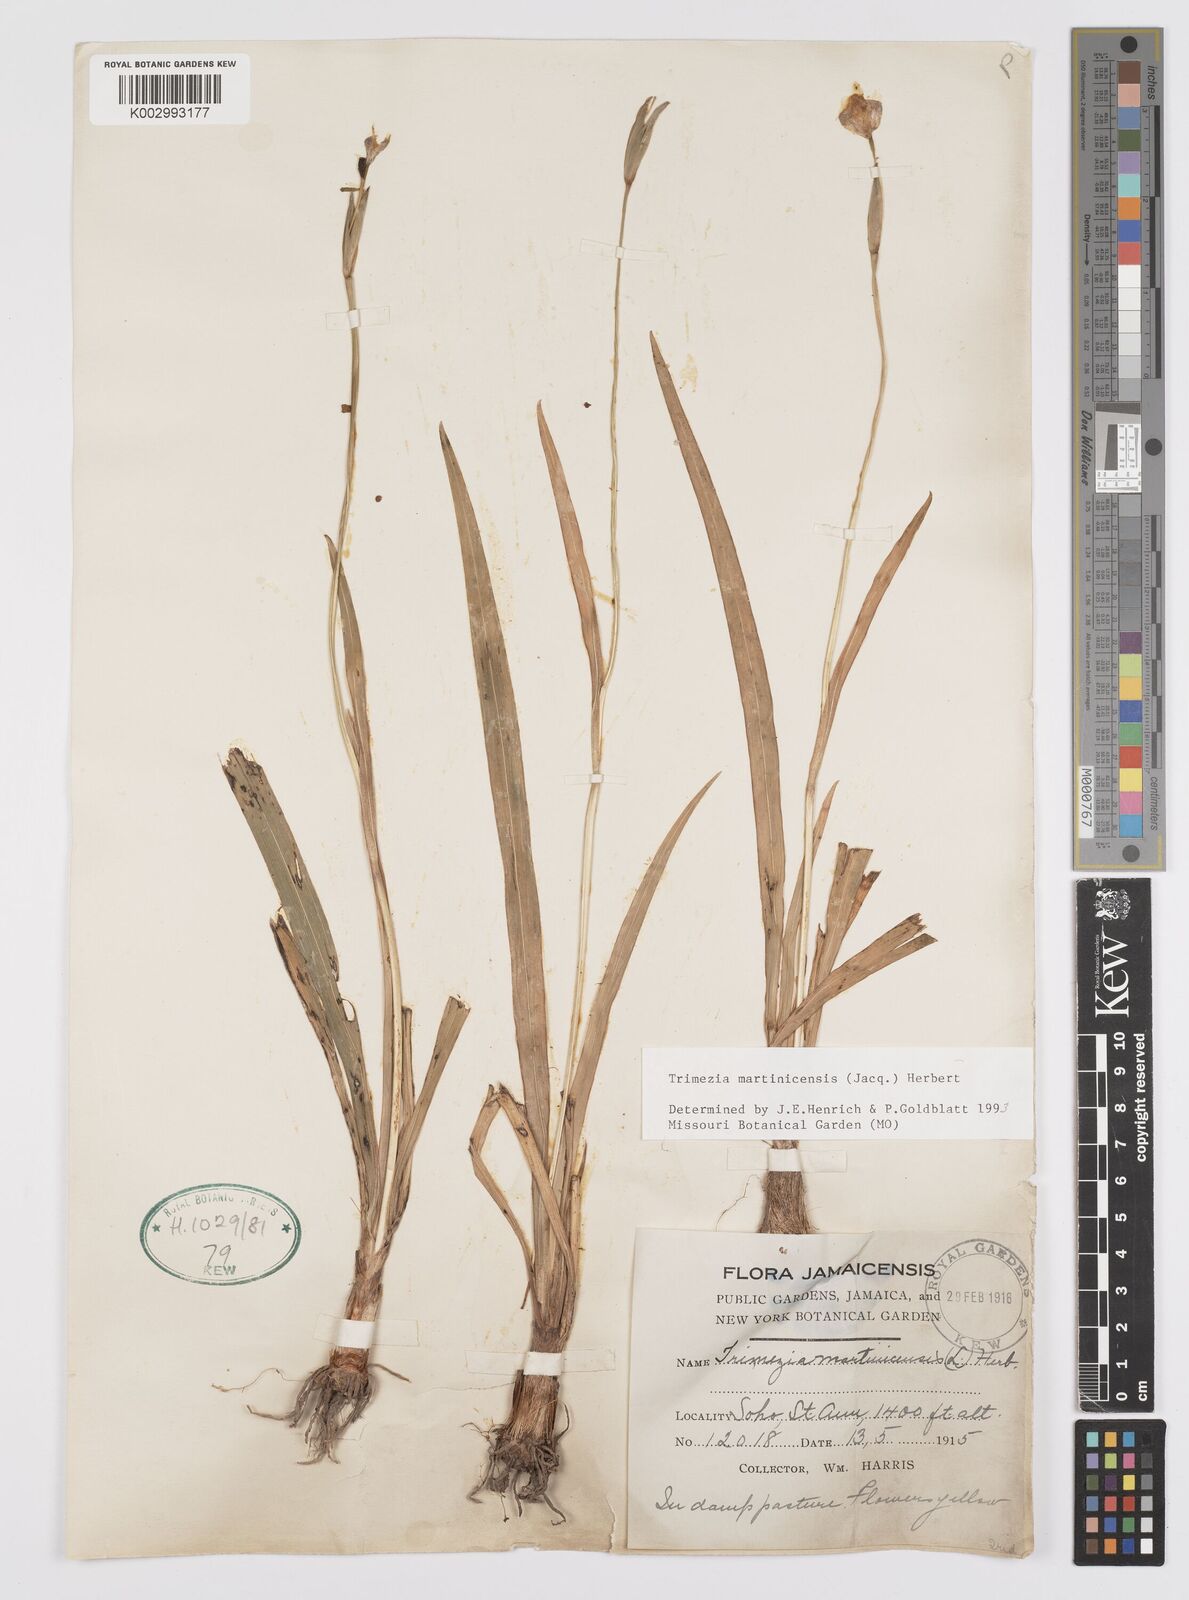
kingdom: Plantae
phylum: Tracheophyta
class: Liliopsida
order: Asparagales
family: Iridaceae
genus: Trimezia
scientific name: Trimezia martinicensis
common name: Martinique trimezia
